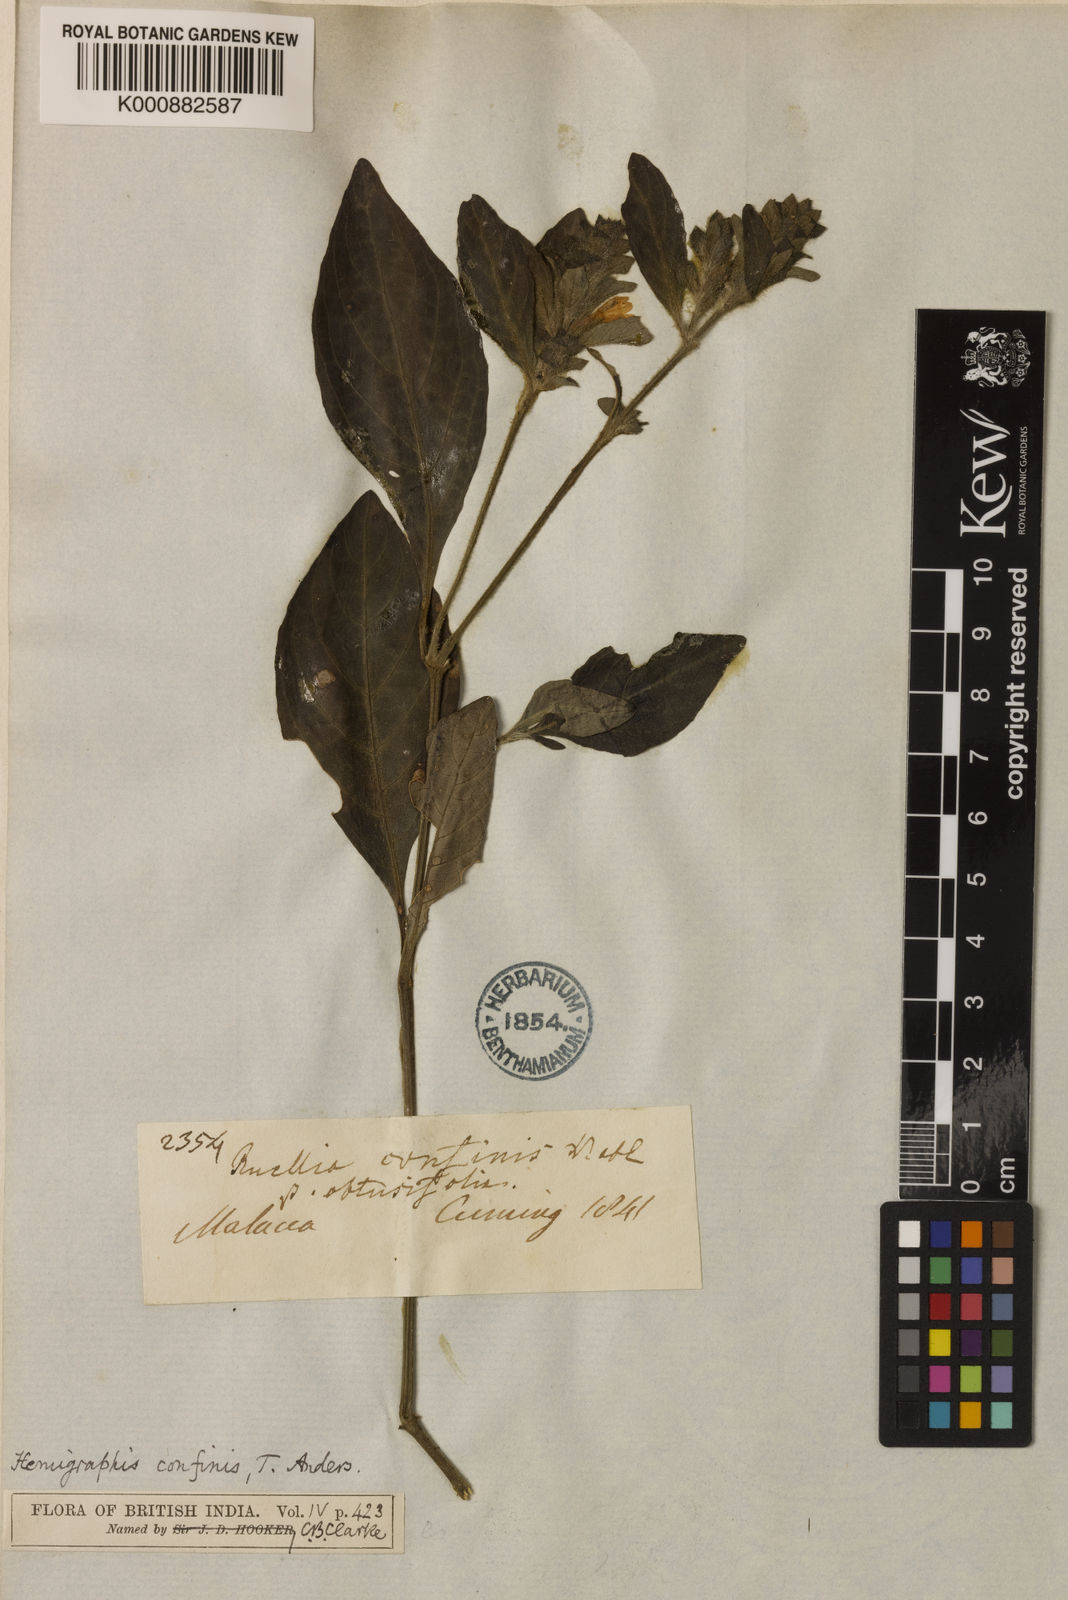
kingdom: Plantae
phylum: Tracheophyta
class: Magnoliopsida
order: Lamiales
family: Acanthaceae
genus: Strobilanthes
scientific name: Strobilanthes brunelloides
